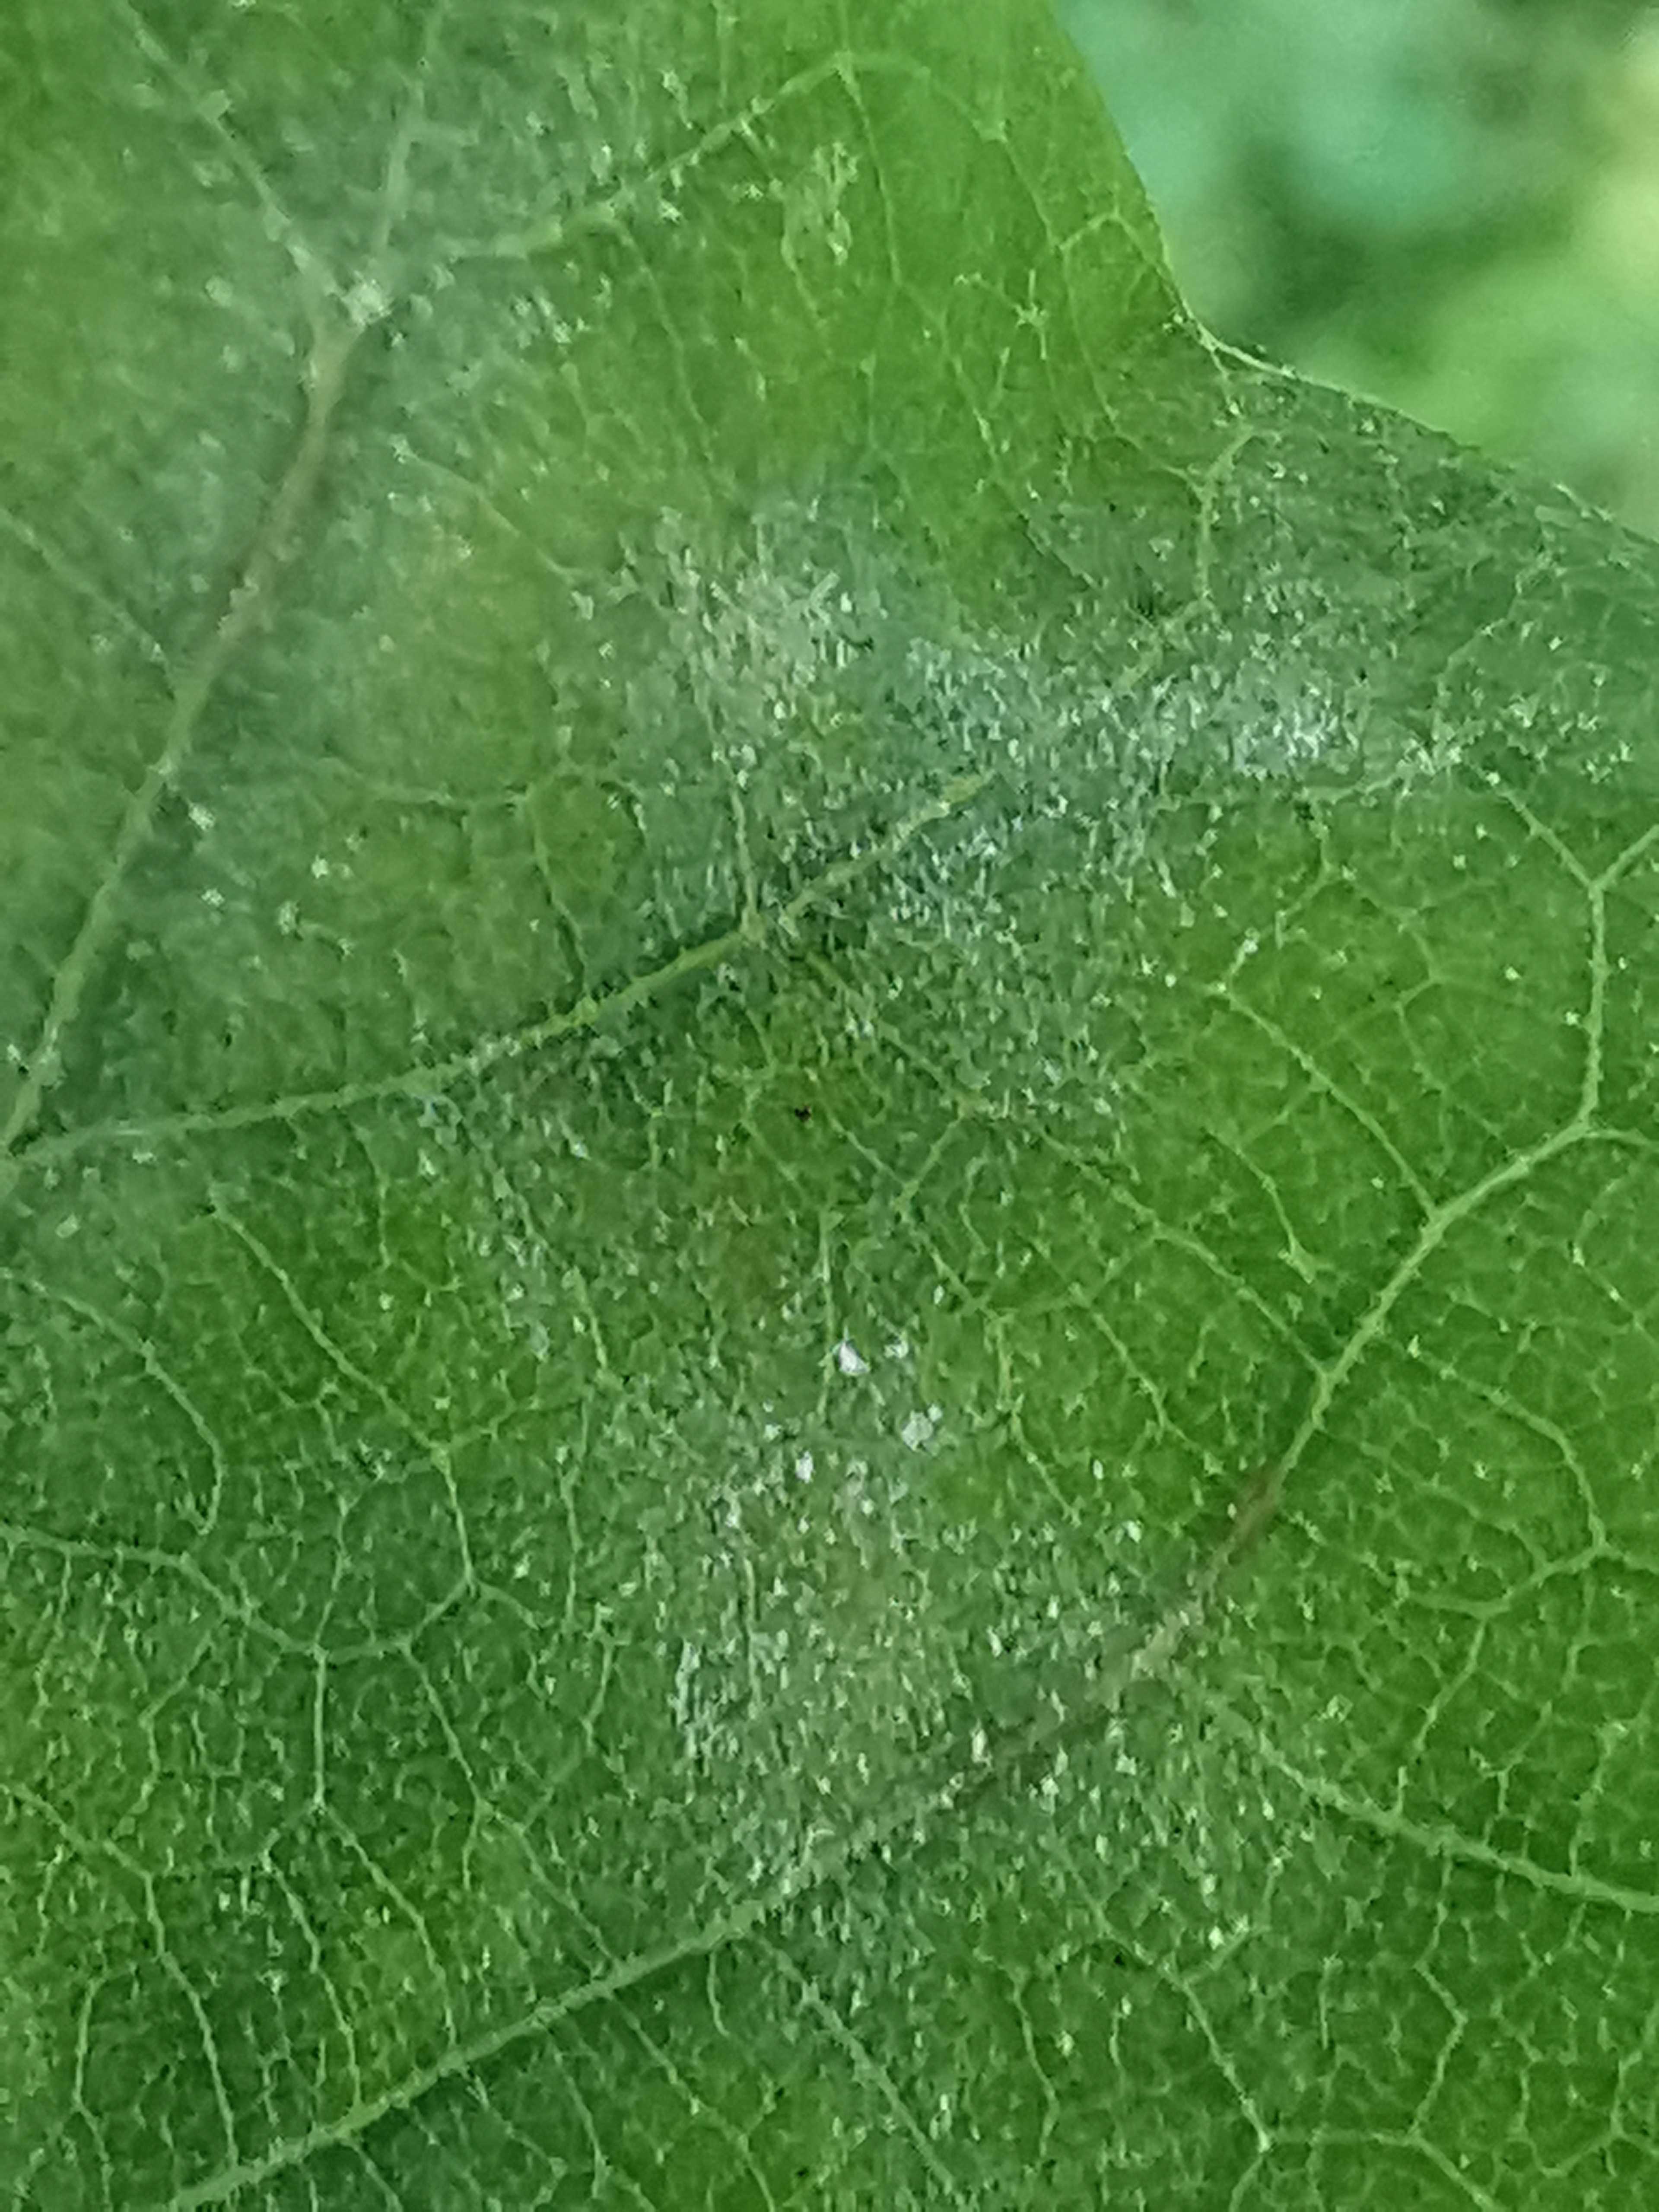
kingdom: Fungi
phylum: Ascomycota
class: Leotiomycetes
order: Helotiales
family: Erysiphaceae
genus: Erysiphe
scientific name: Erysiphe alphitoides
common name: ege-meldug
